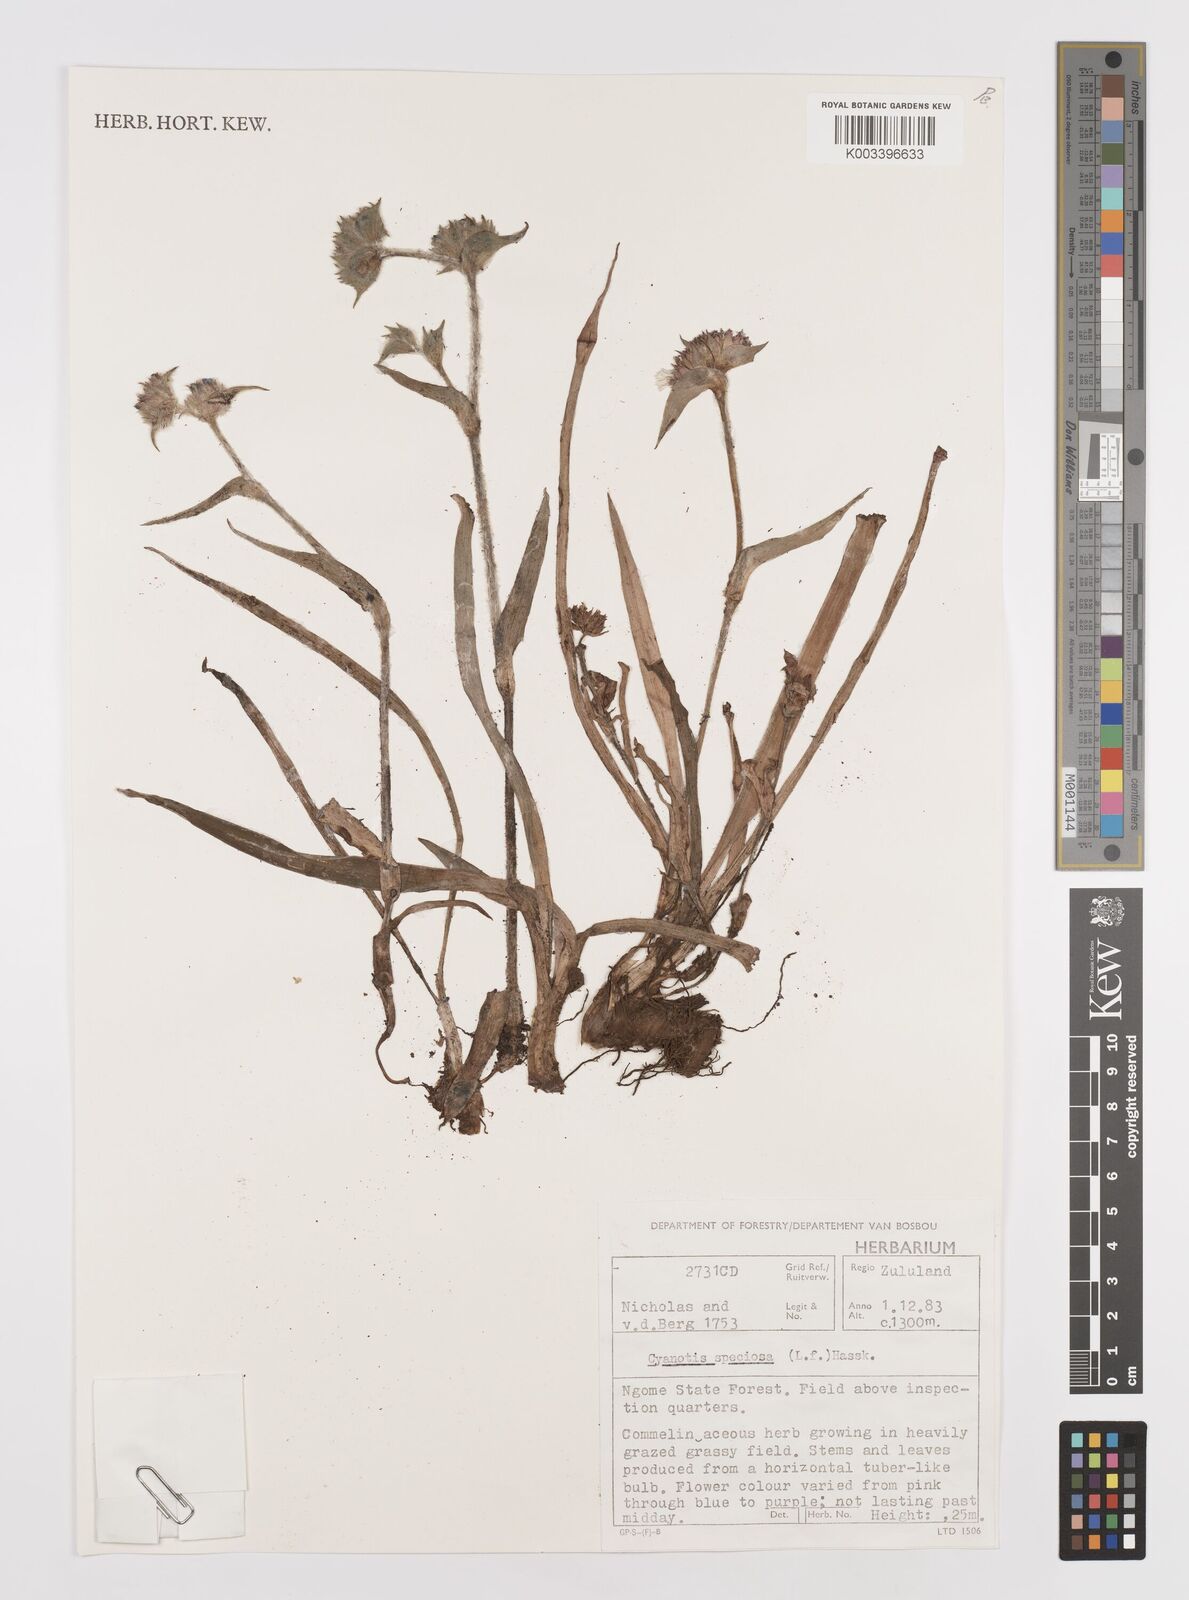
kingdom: Plantae
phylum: Tracheophyta
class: Liliopsida
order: Commelinales
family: Commelinaceae
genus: Cyanotis
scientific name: Cyanotis speciosa
